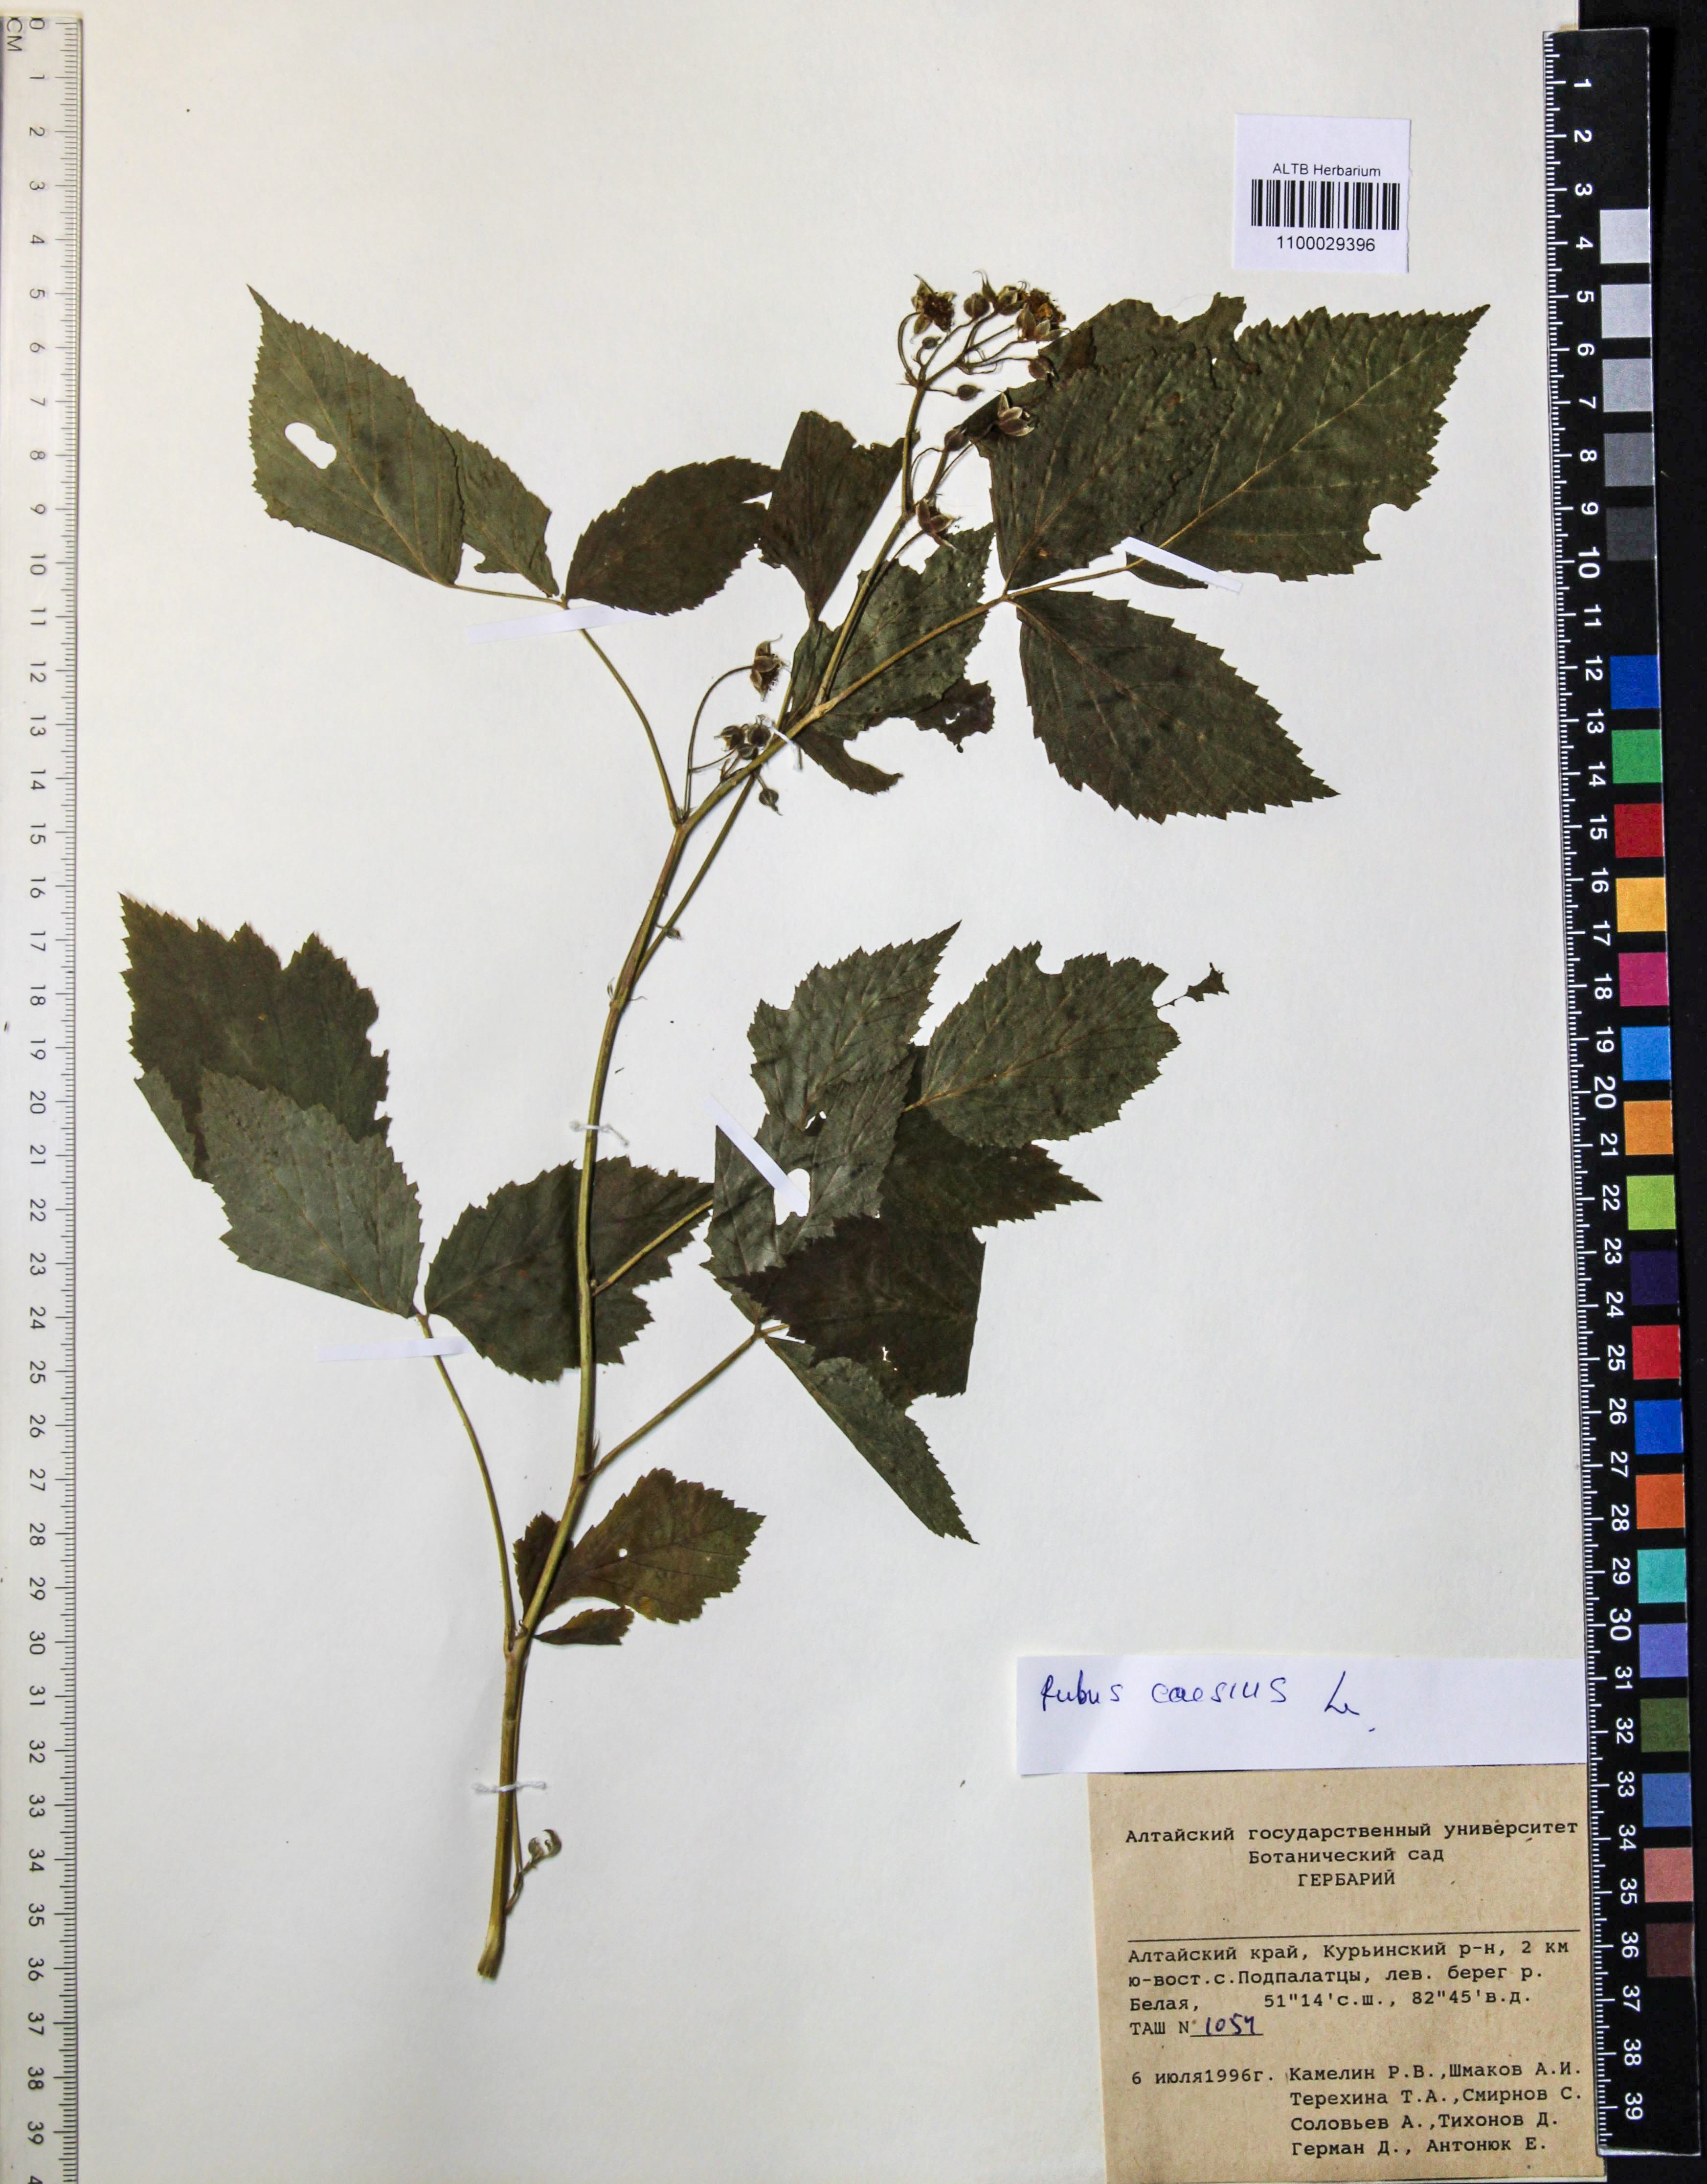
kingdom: Plantae
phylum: Tracheophyta
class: Magnoliopsida
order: Rosales
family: Rosaceae
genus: Rubus
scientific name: Rubus caesius
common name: Dewberry
